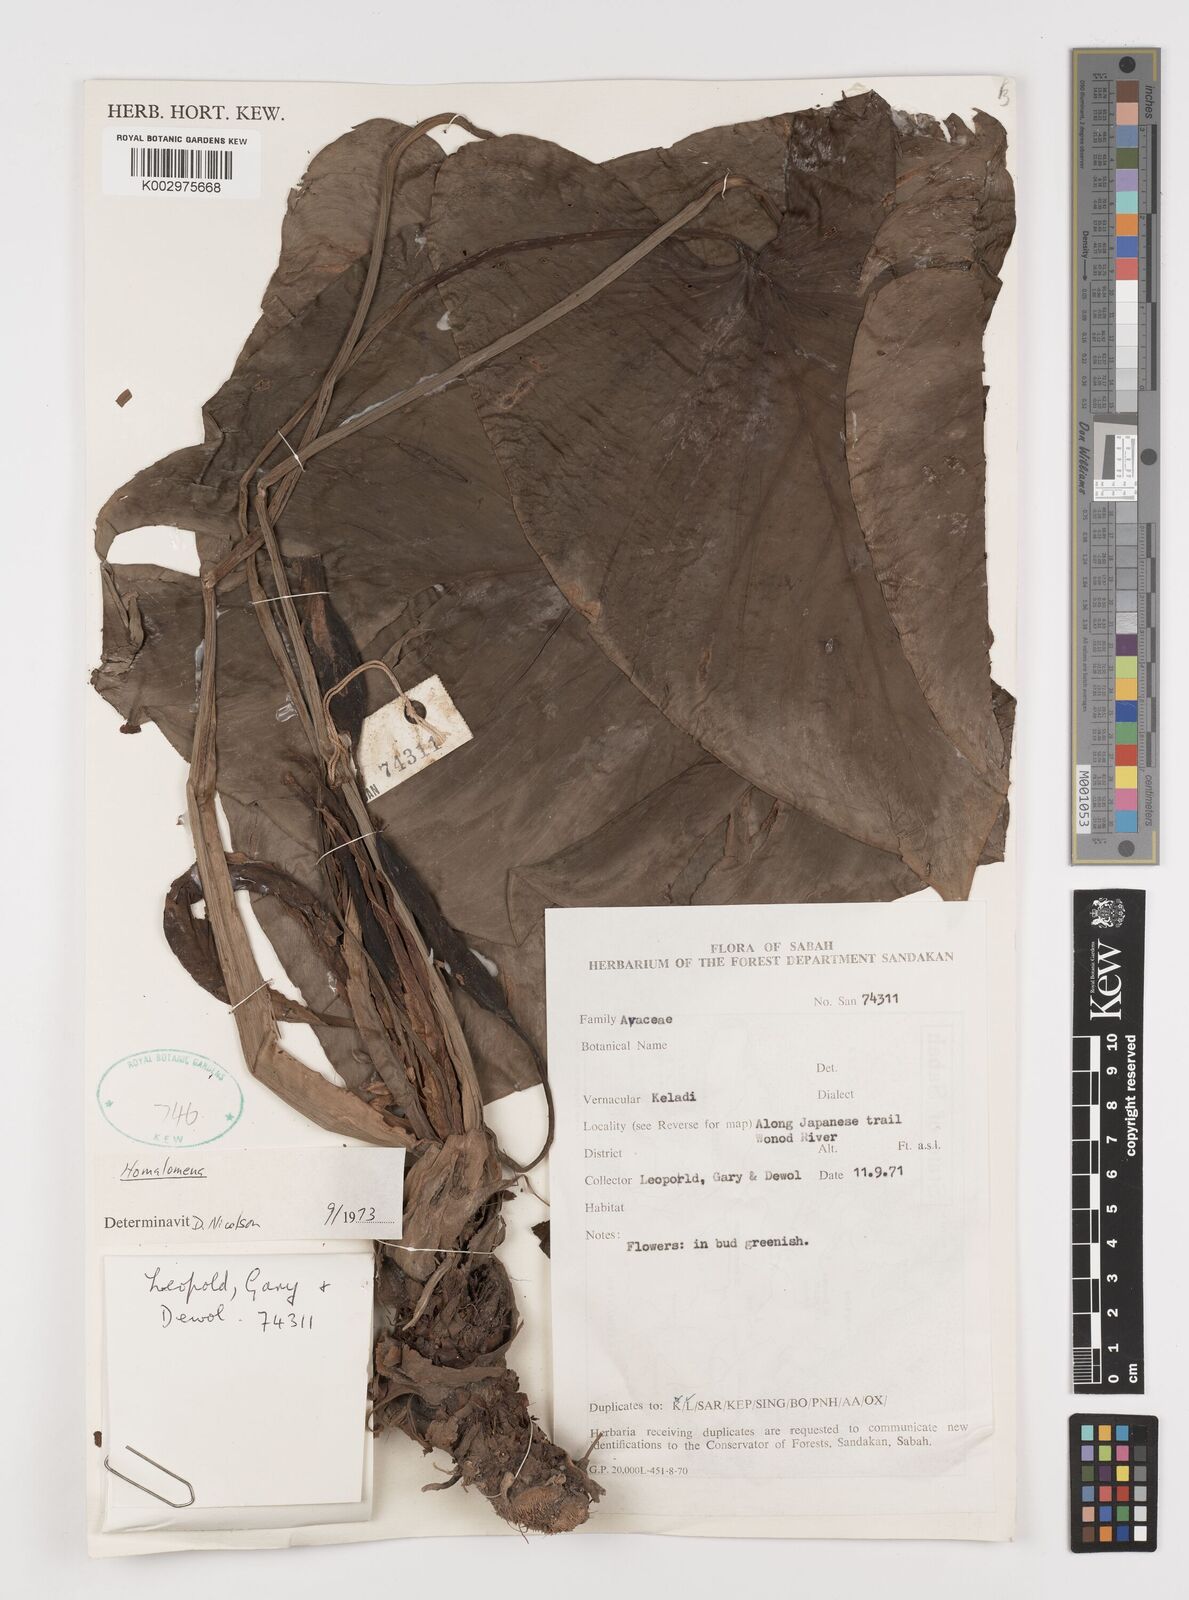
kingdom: Plantae
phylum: Tracheophyta
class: Liliopsida
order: Alismatales
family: Araceae
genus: Homalomena
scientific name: Homalomena
